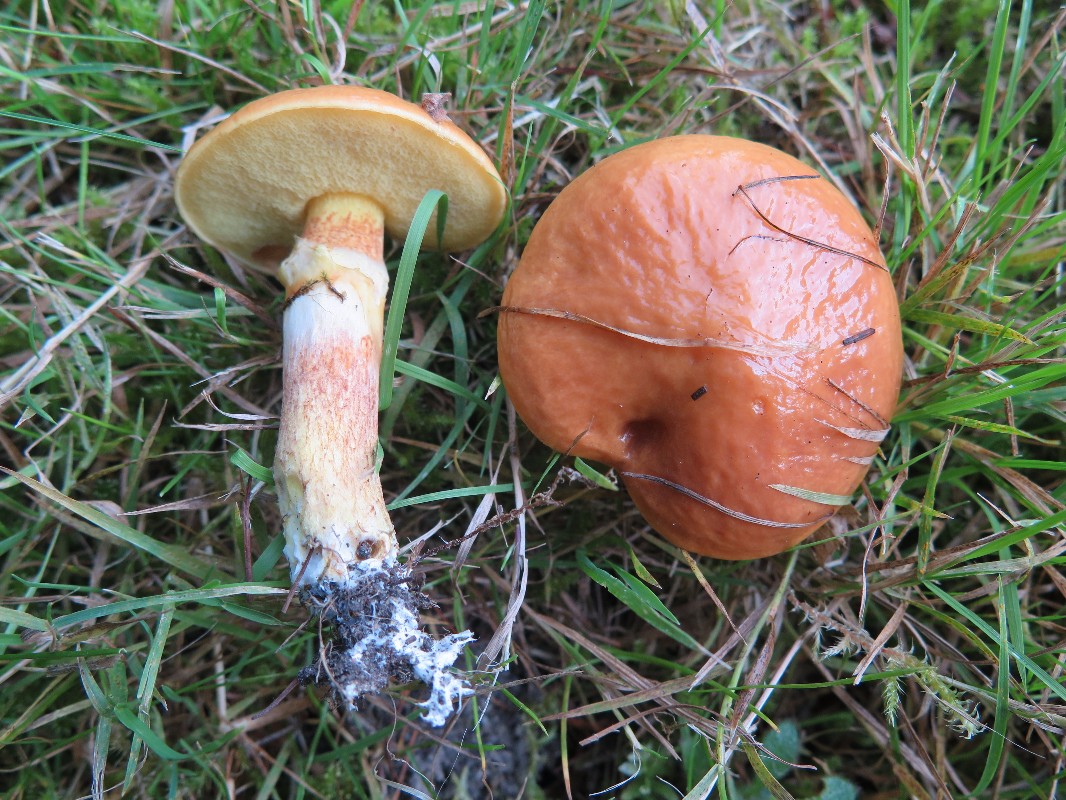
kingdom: Fungi
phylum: Basidiomycota
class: Agaricomycetes
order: Boletales
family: Suillaceae
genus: Suillus
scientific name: Suillus grevillei
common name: lærke-slimrørhat
